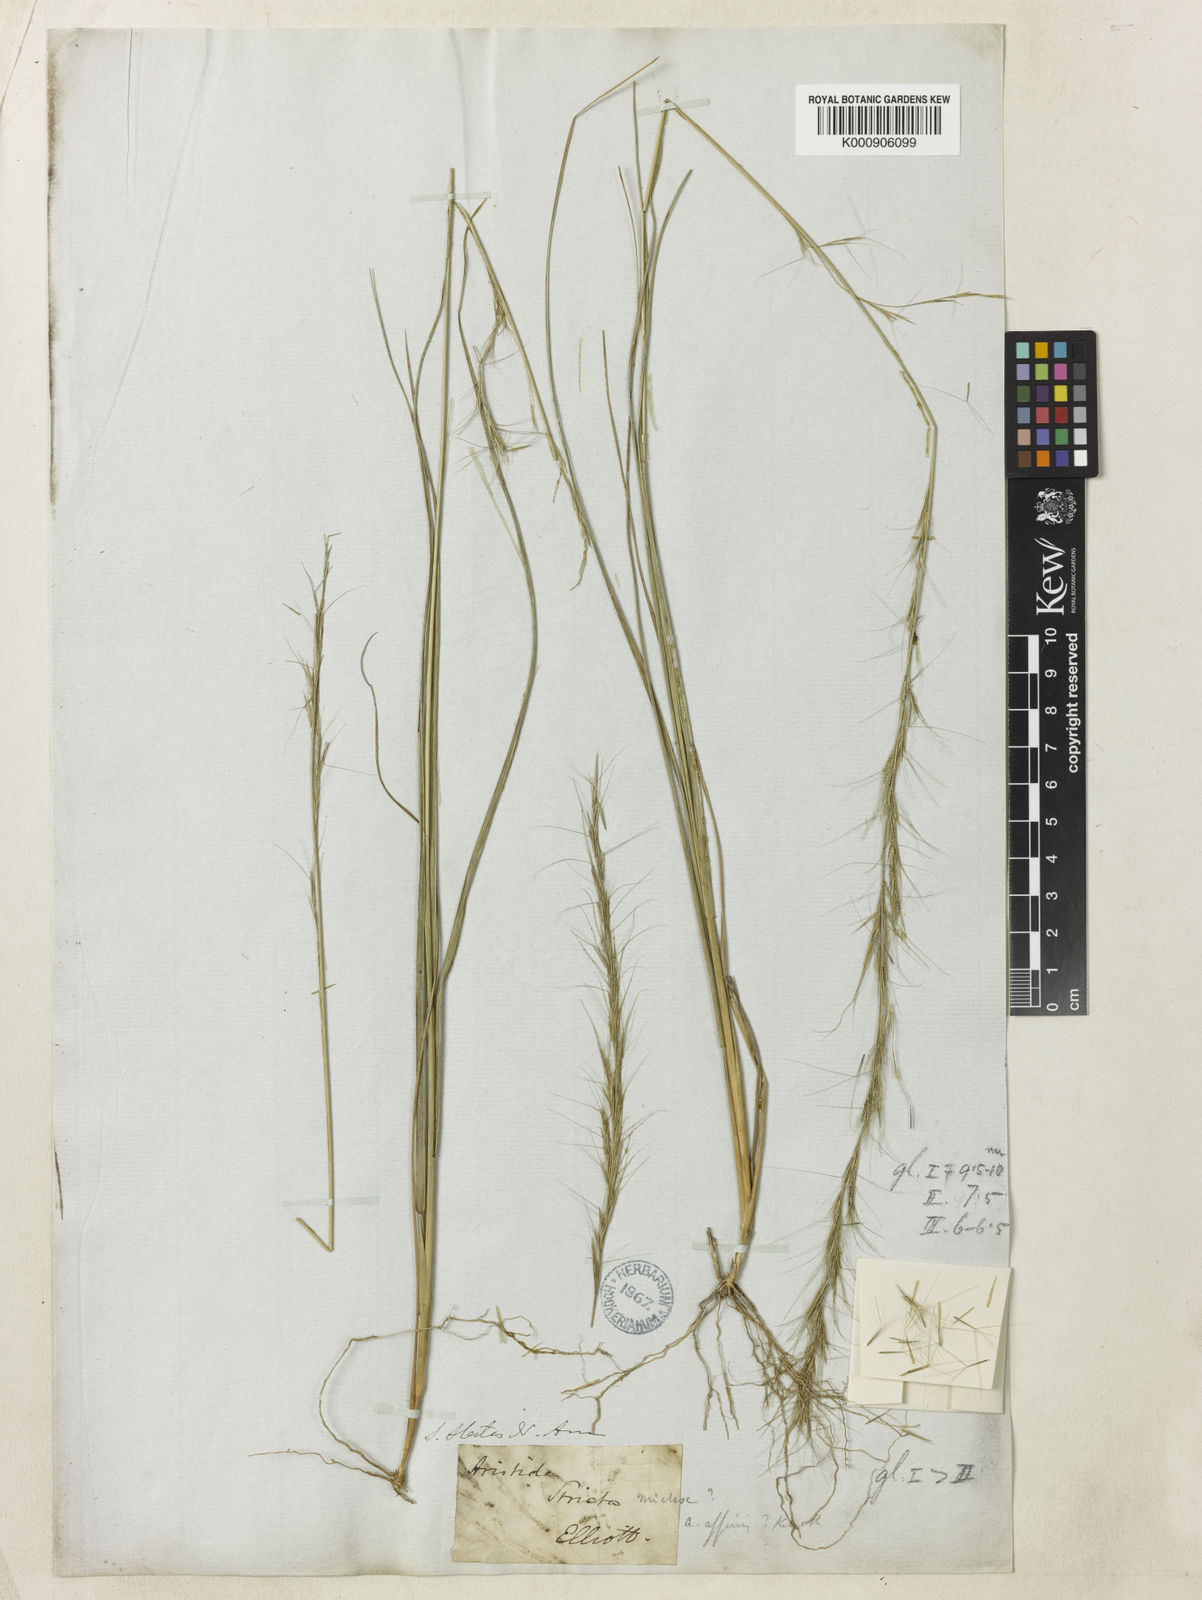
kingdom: Plantae
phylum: Tracheophyta
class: Liliopsida
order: Poales
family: Poaceae
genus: Aristida
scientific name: Aristida purpurascens
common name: Arrow-feather
